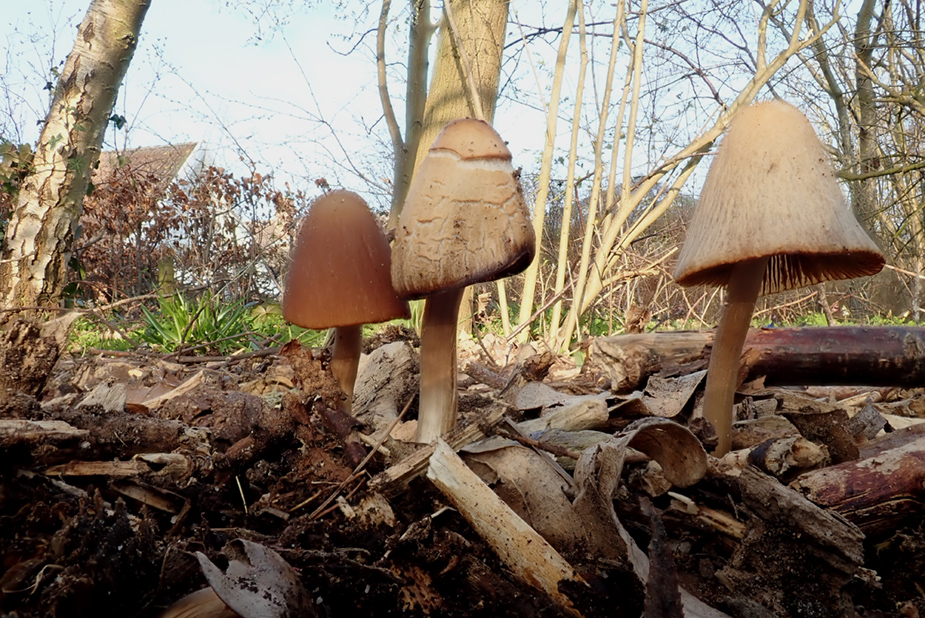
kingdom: Fungi
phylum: Basidiomycota
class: Agaricomycetes
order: Agaricales
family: Psathyrellaceae
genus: Parasola
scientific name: Parasola conopilea
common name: kegle-hjulhat
